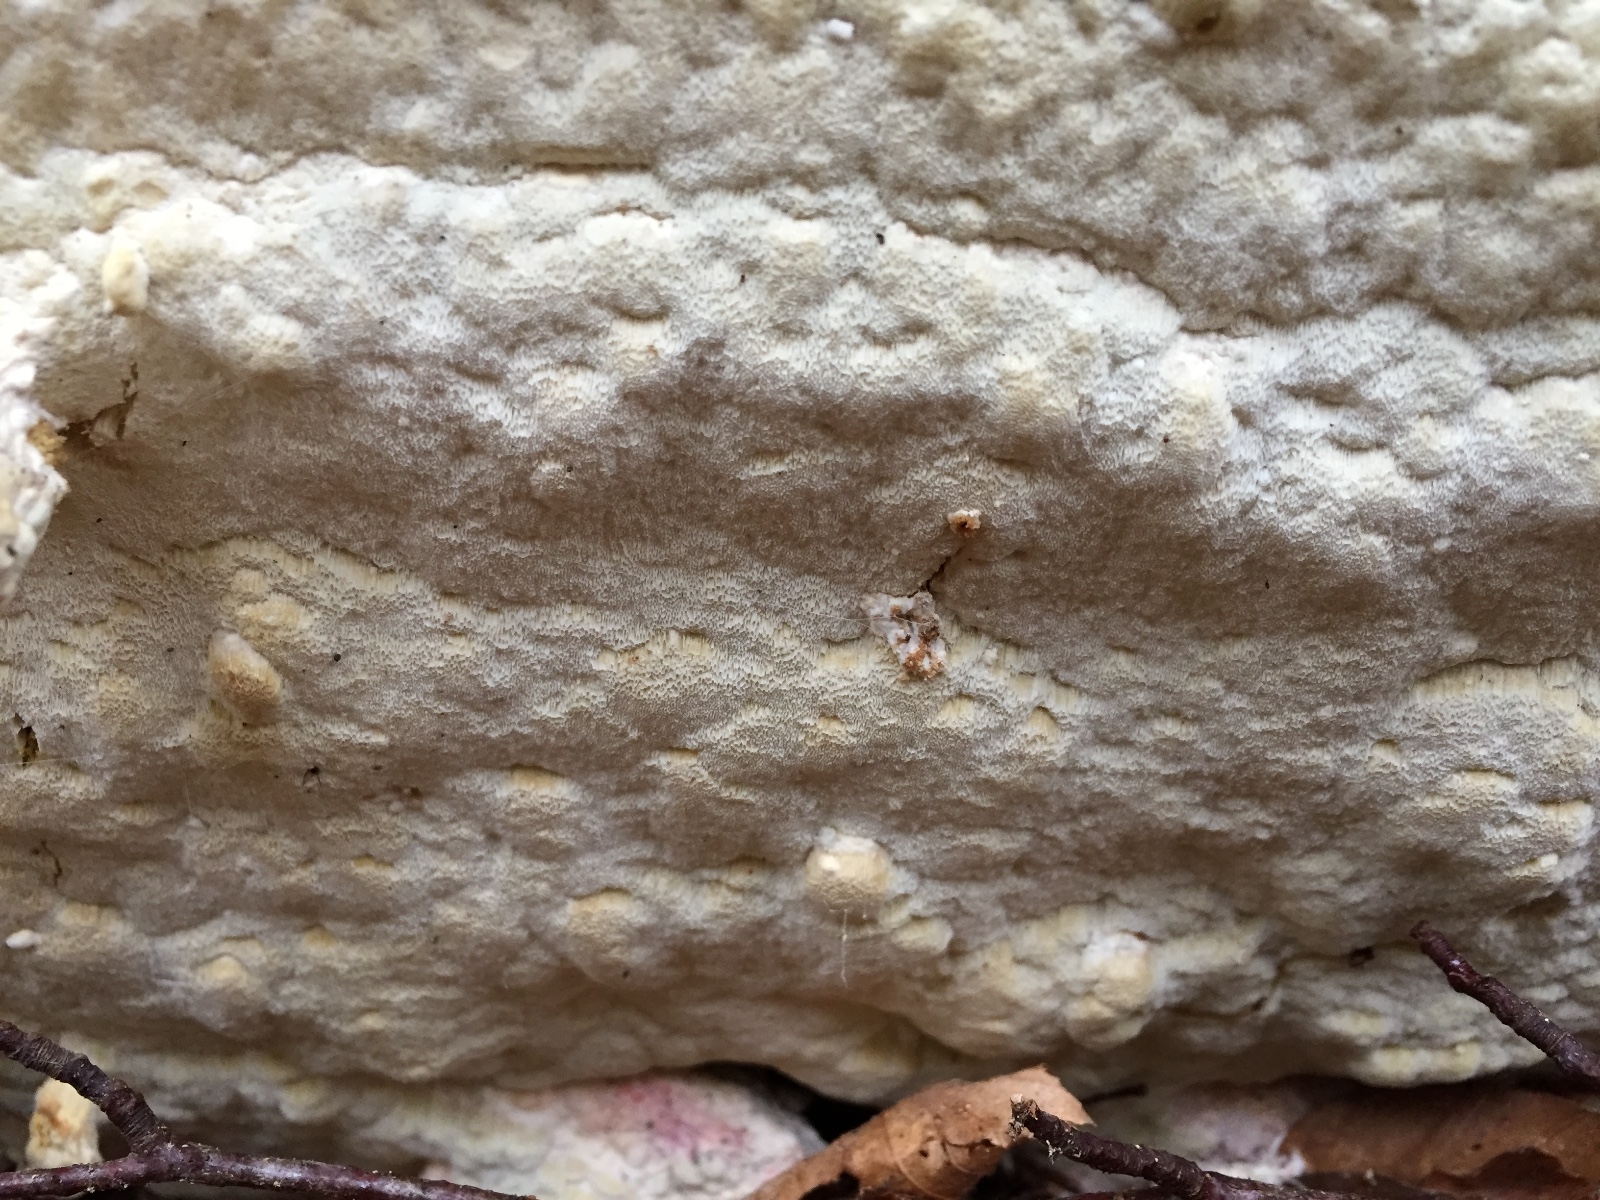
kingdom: Fungi
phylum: Basidiomycota
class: Agaricomycetes
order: Polyporales
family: Irpicaceae
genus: Gloeoporus
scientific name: Gloeoporus pannocinctus
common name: grøngul foldporesvamp
